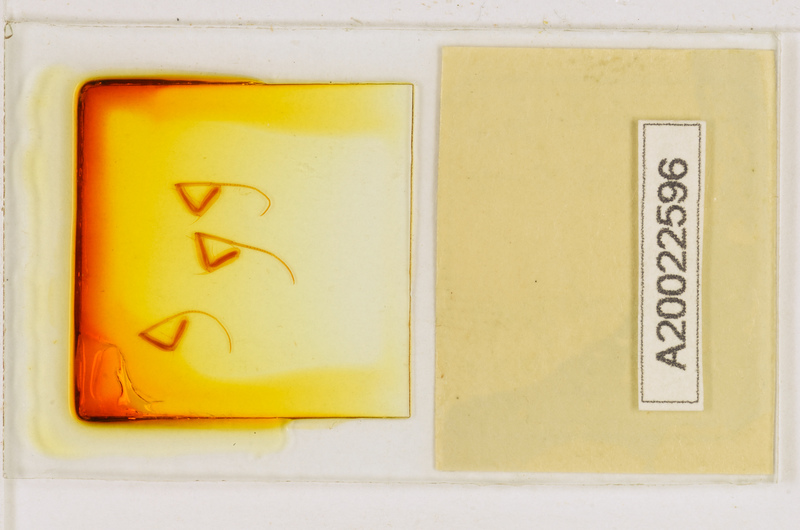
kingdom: Animalia
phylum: Arthropoda
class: Chilopoda
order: Scutigeromorpha
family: Scutigeridae
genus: Scutigera
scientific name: Scutigera coleoptrata
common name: House centipede
